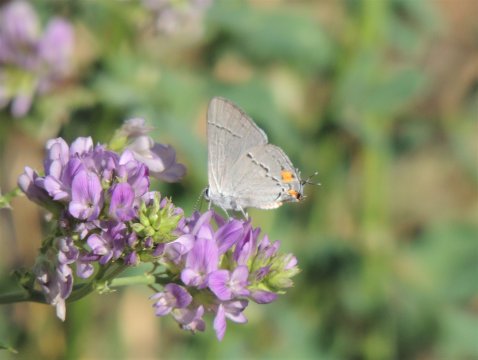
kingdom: Animalia
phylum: Arthropoda
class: Insecta
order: Lepidoptera
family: Lycaenidae
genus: Strymon
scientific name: Strymon melinus
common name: Gray Hairstreak
